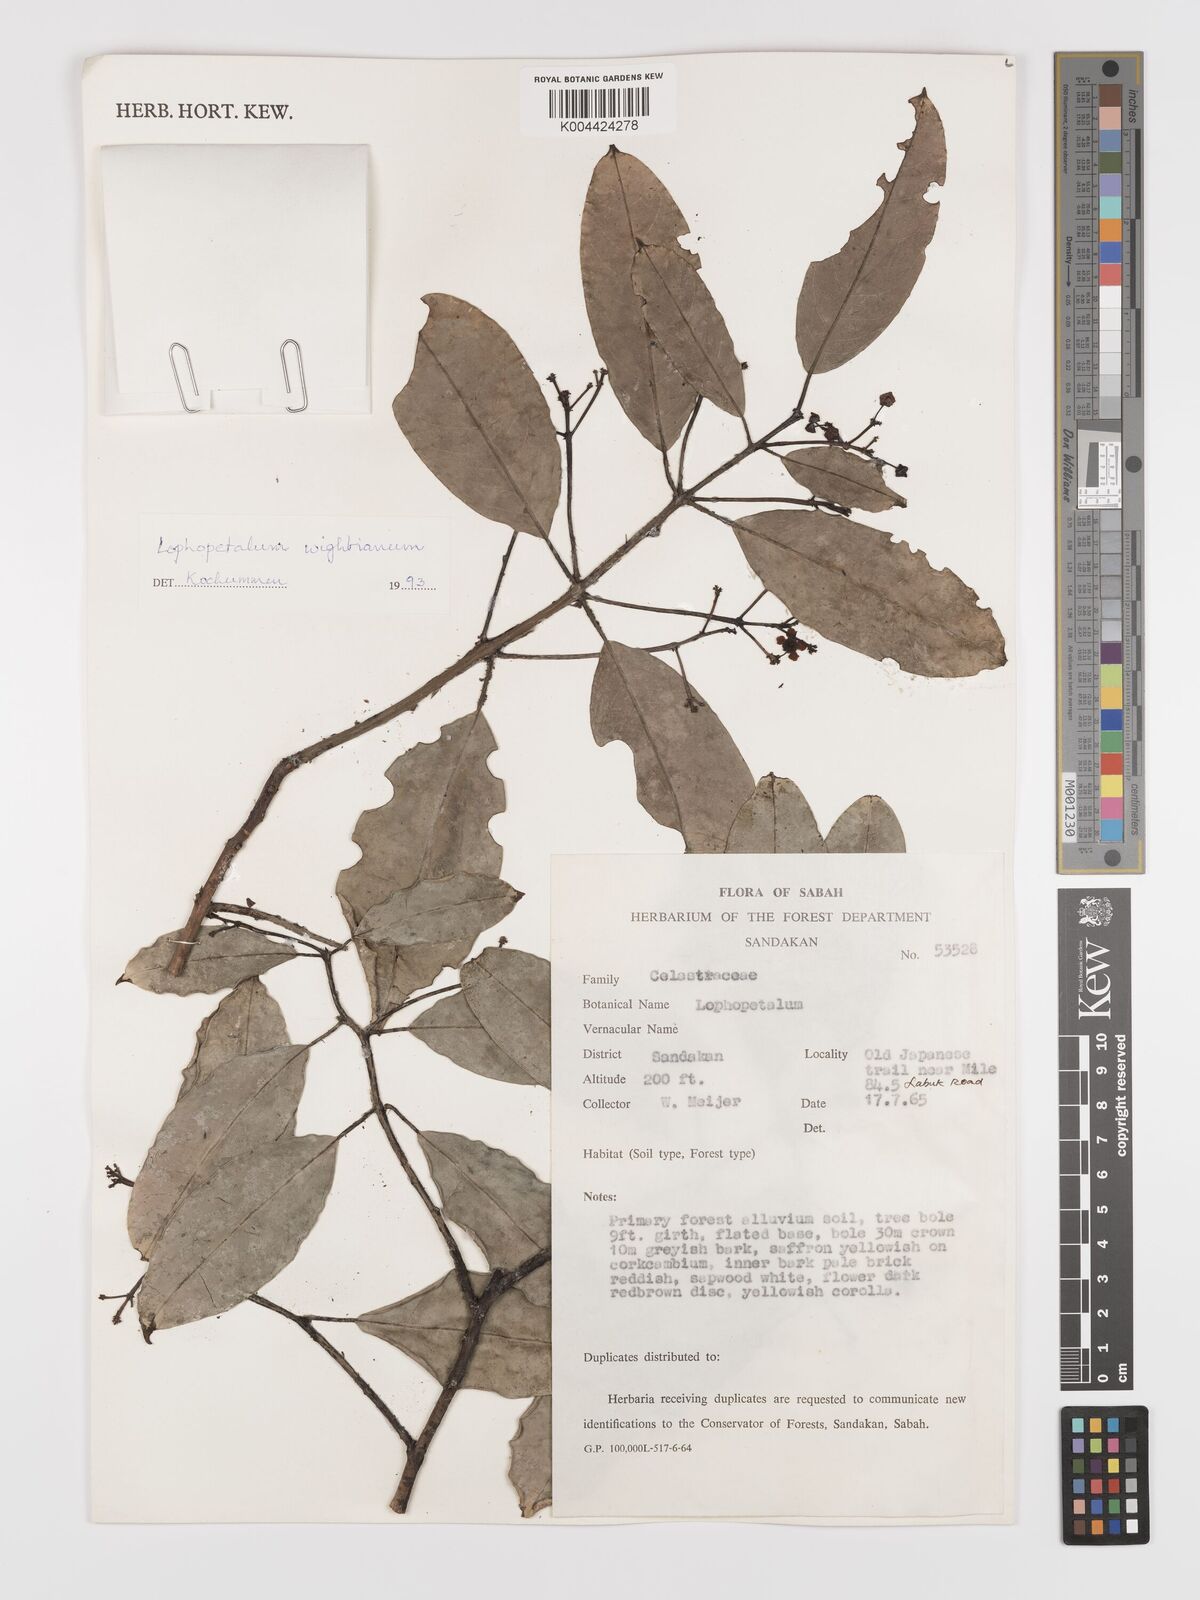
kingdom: Plantae
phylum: Tracheophyta
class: Magnoliopsida
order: Celastrales
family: Celastraceae
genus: Lophopetalum
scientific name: Lophopetalum wightianum
